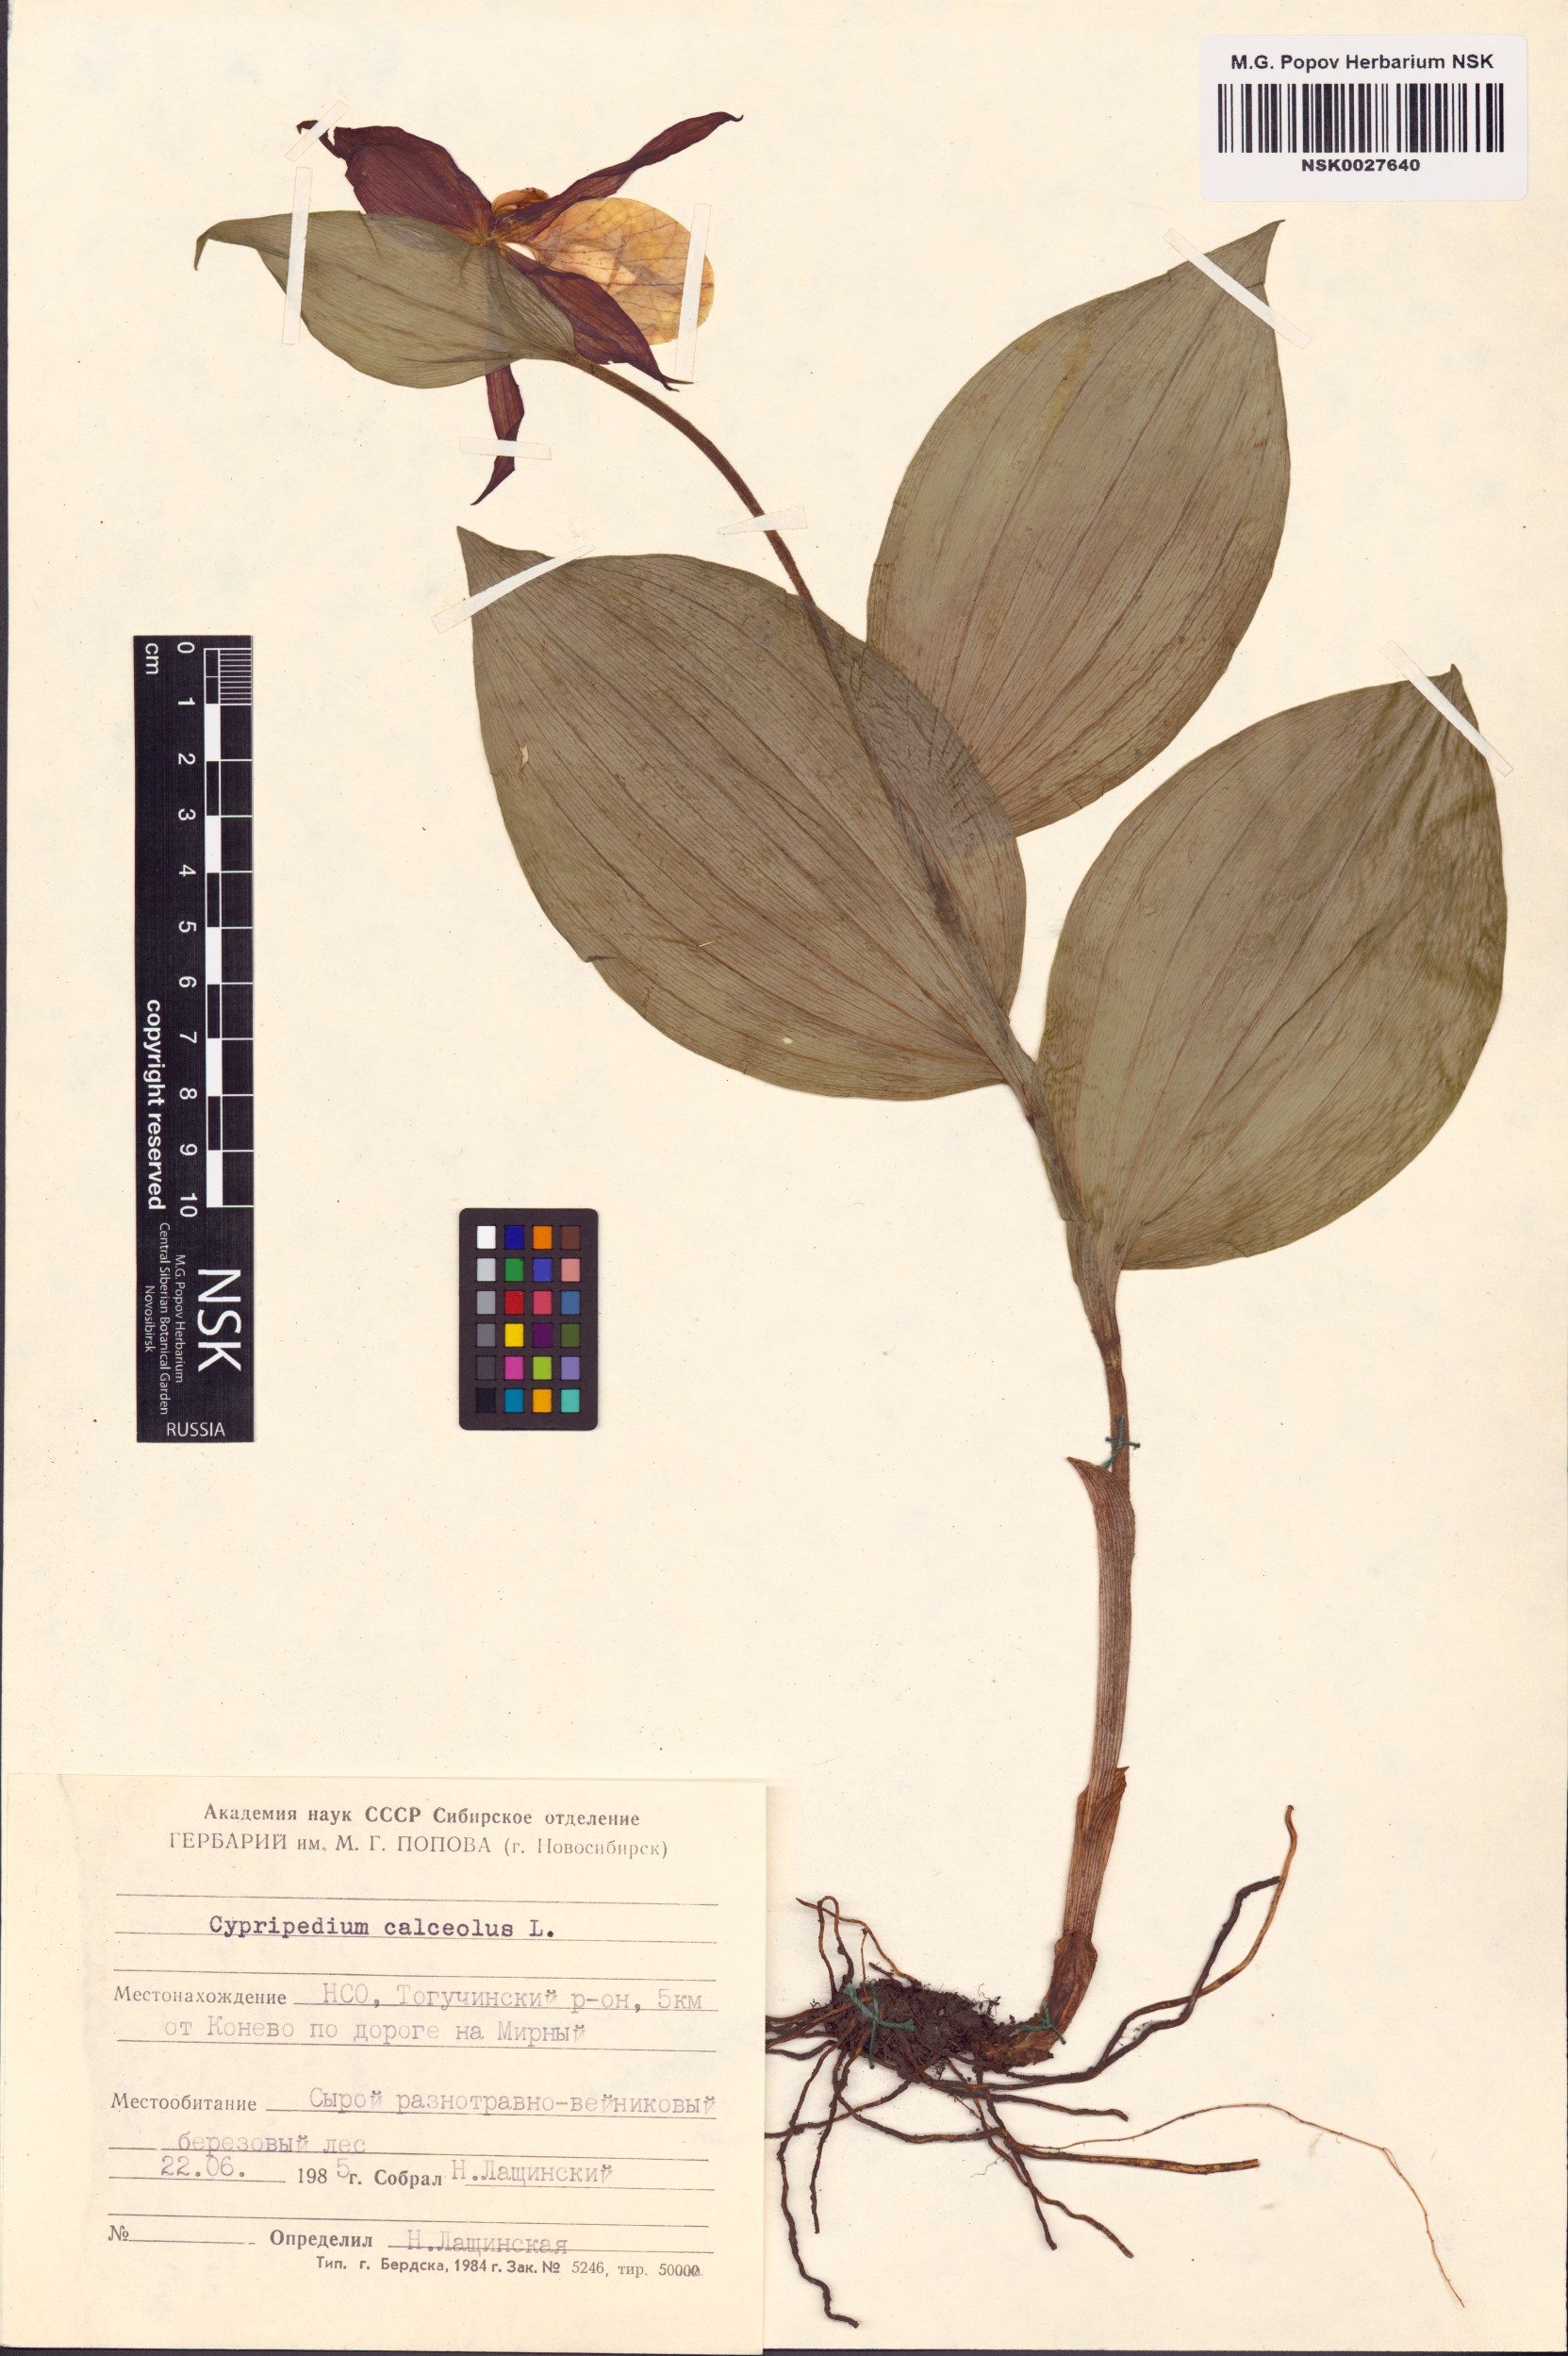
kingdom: Plantae
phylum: Tracheophyta
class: Liliopsida
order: Asparagales
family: Orchidaceae
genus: Cypripedium
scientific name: Cypripedium calceolus
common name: Lady's-slipper
